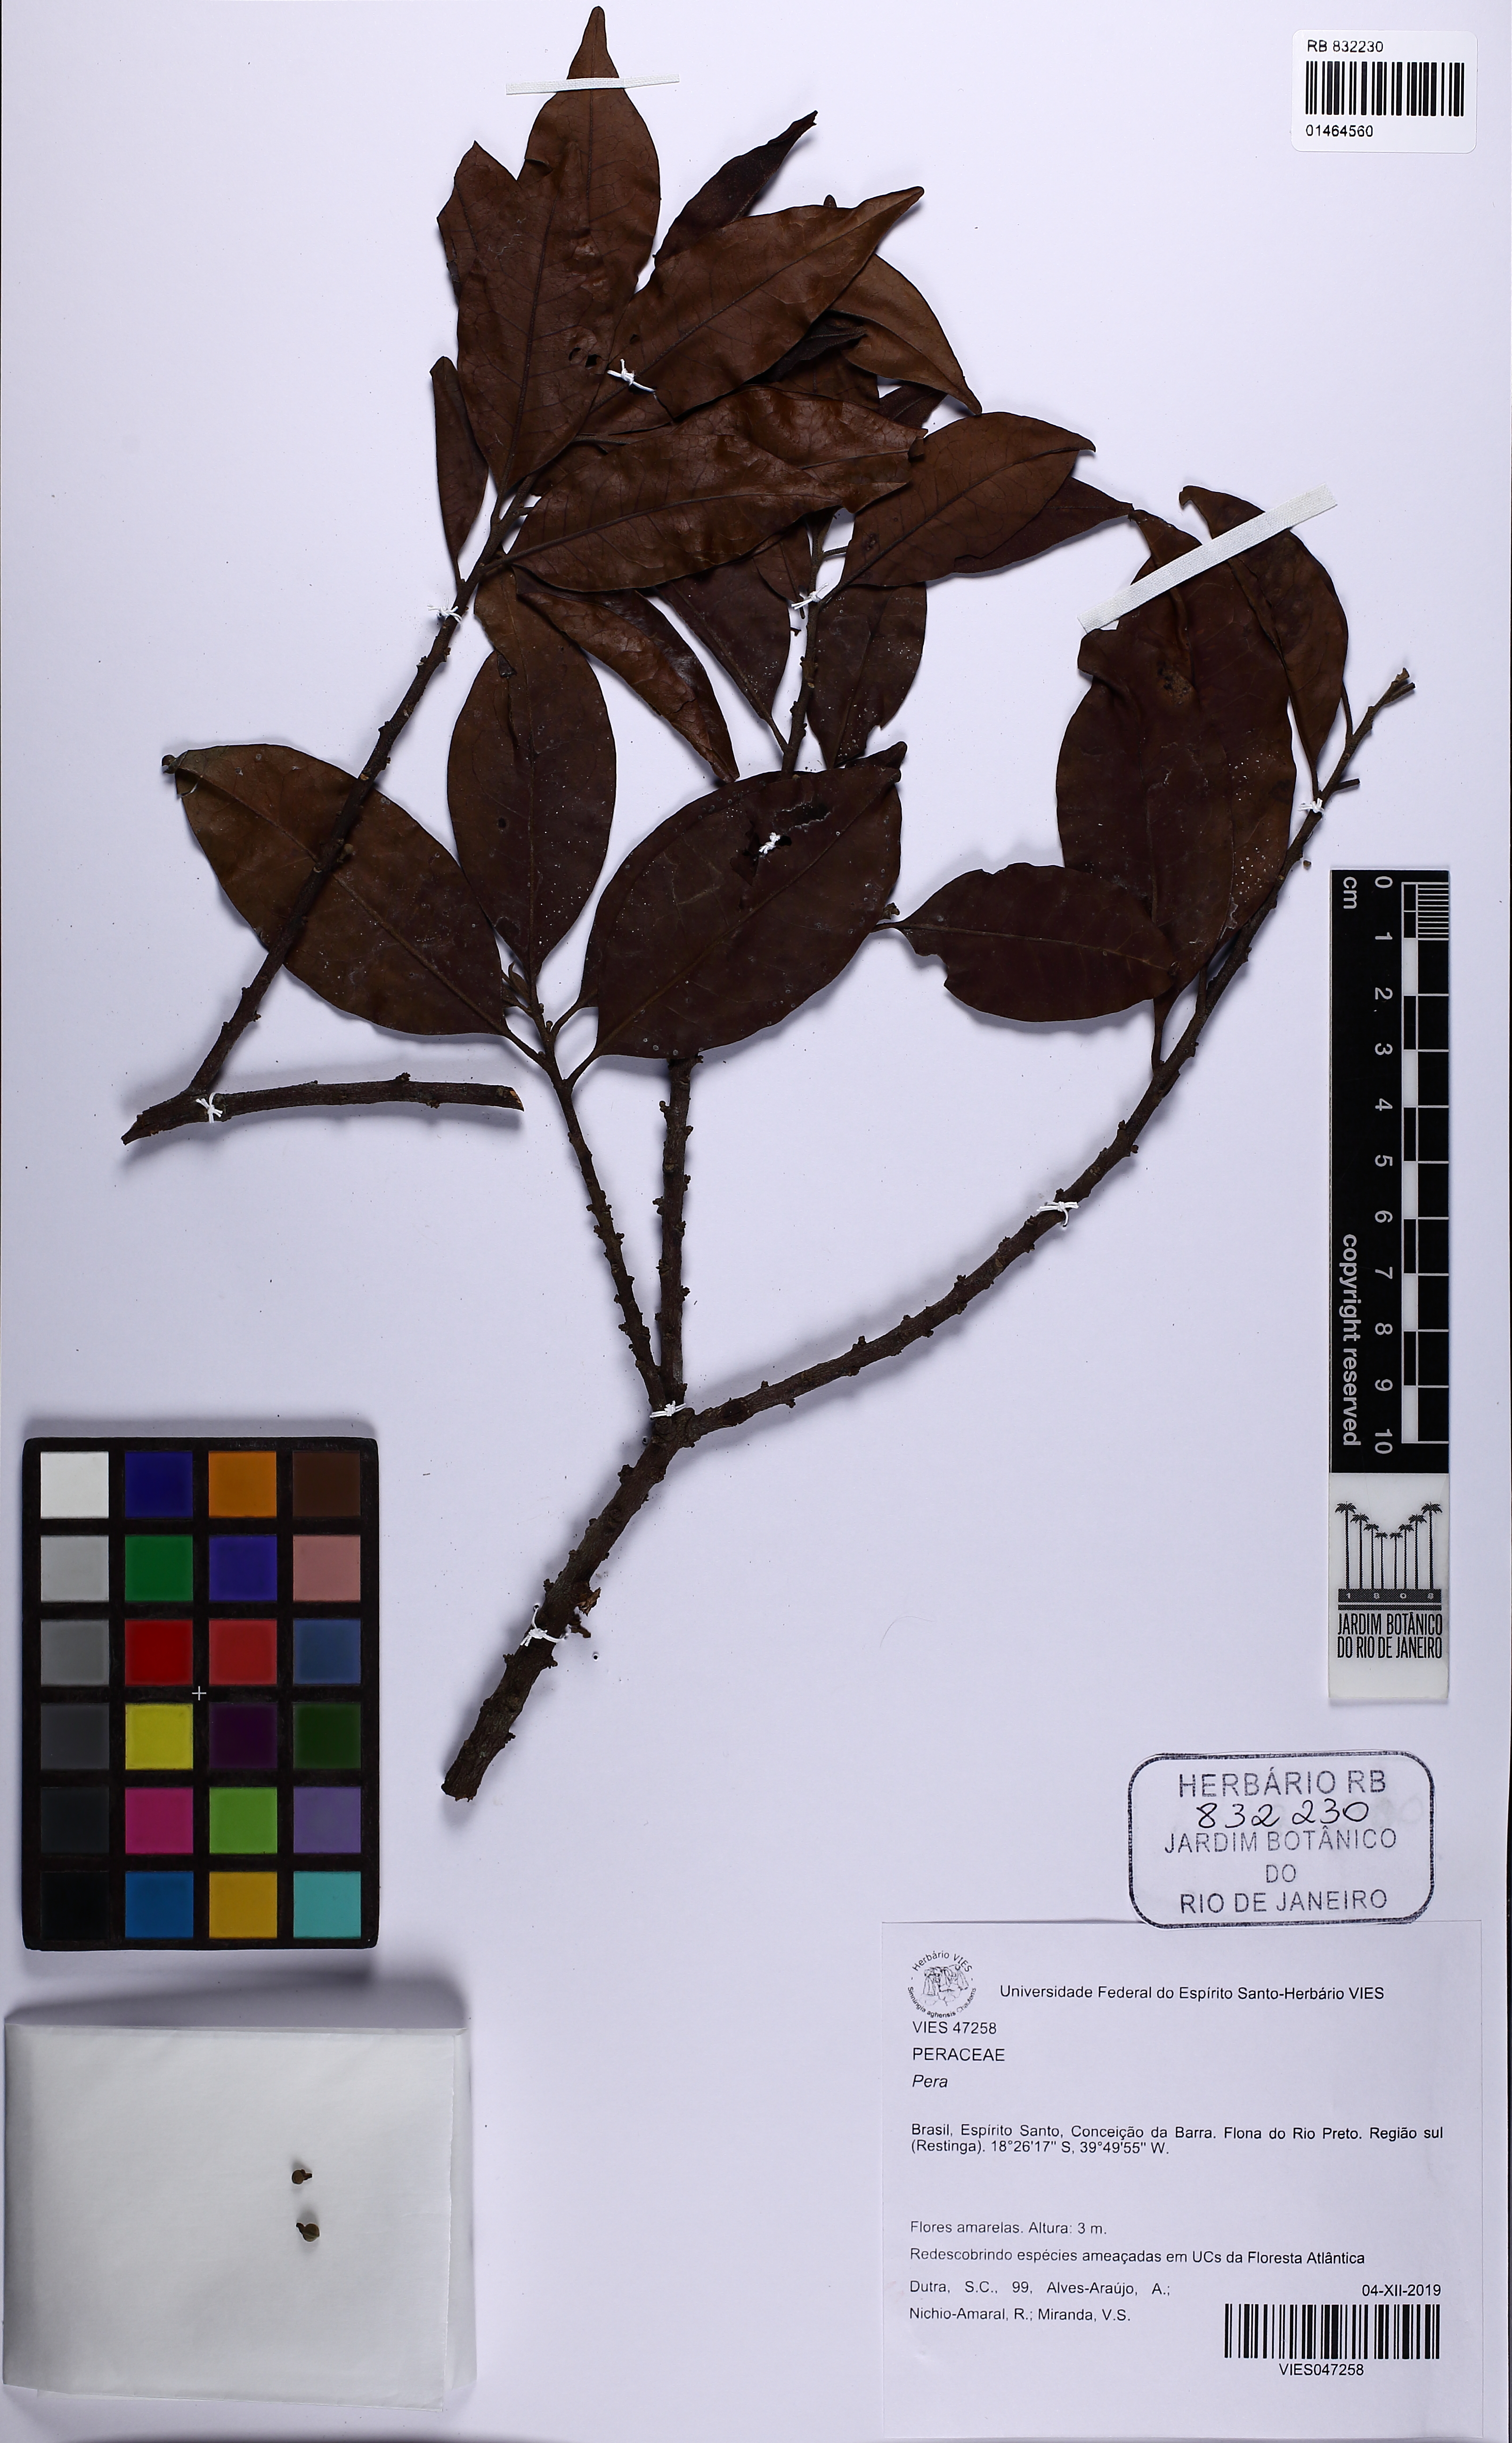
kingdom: Plantae
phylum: Tracheophyta
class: Magnoliopsida
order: Malpighiales
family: Peraceae
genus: Pera
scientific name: Pera
